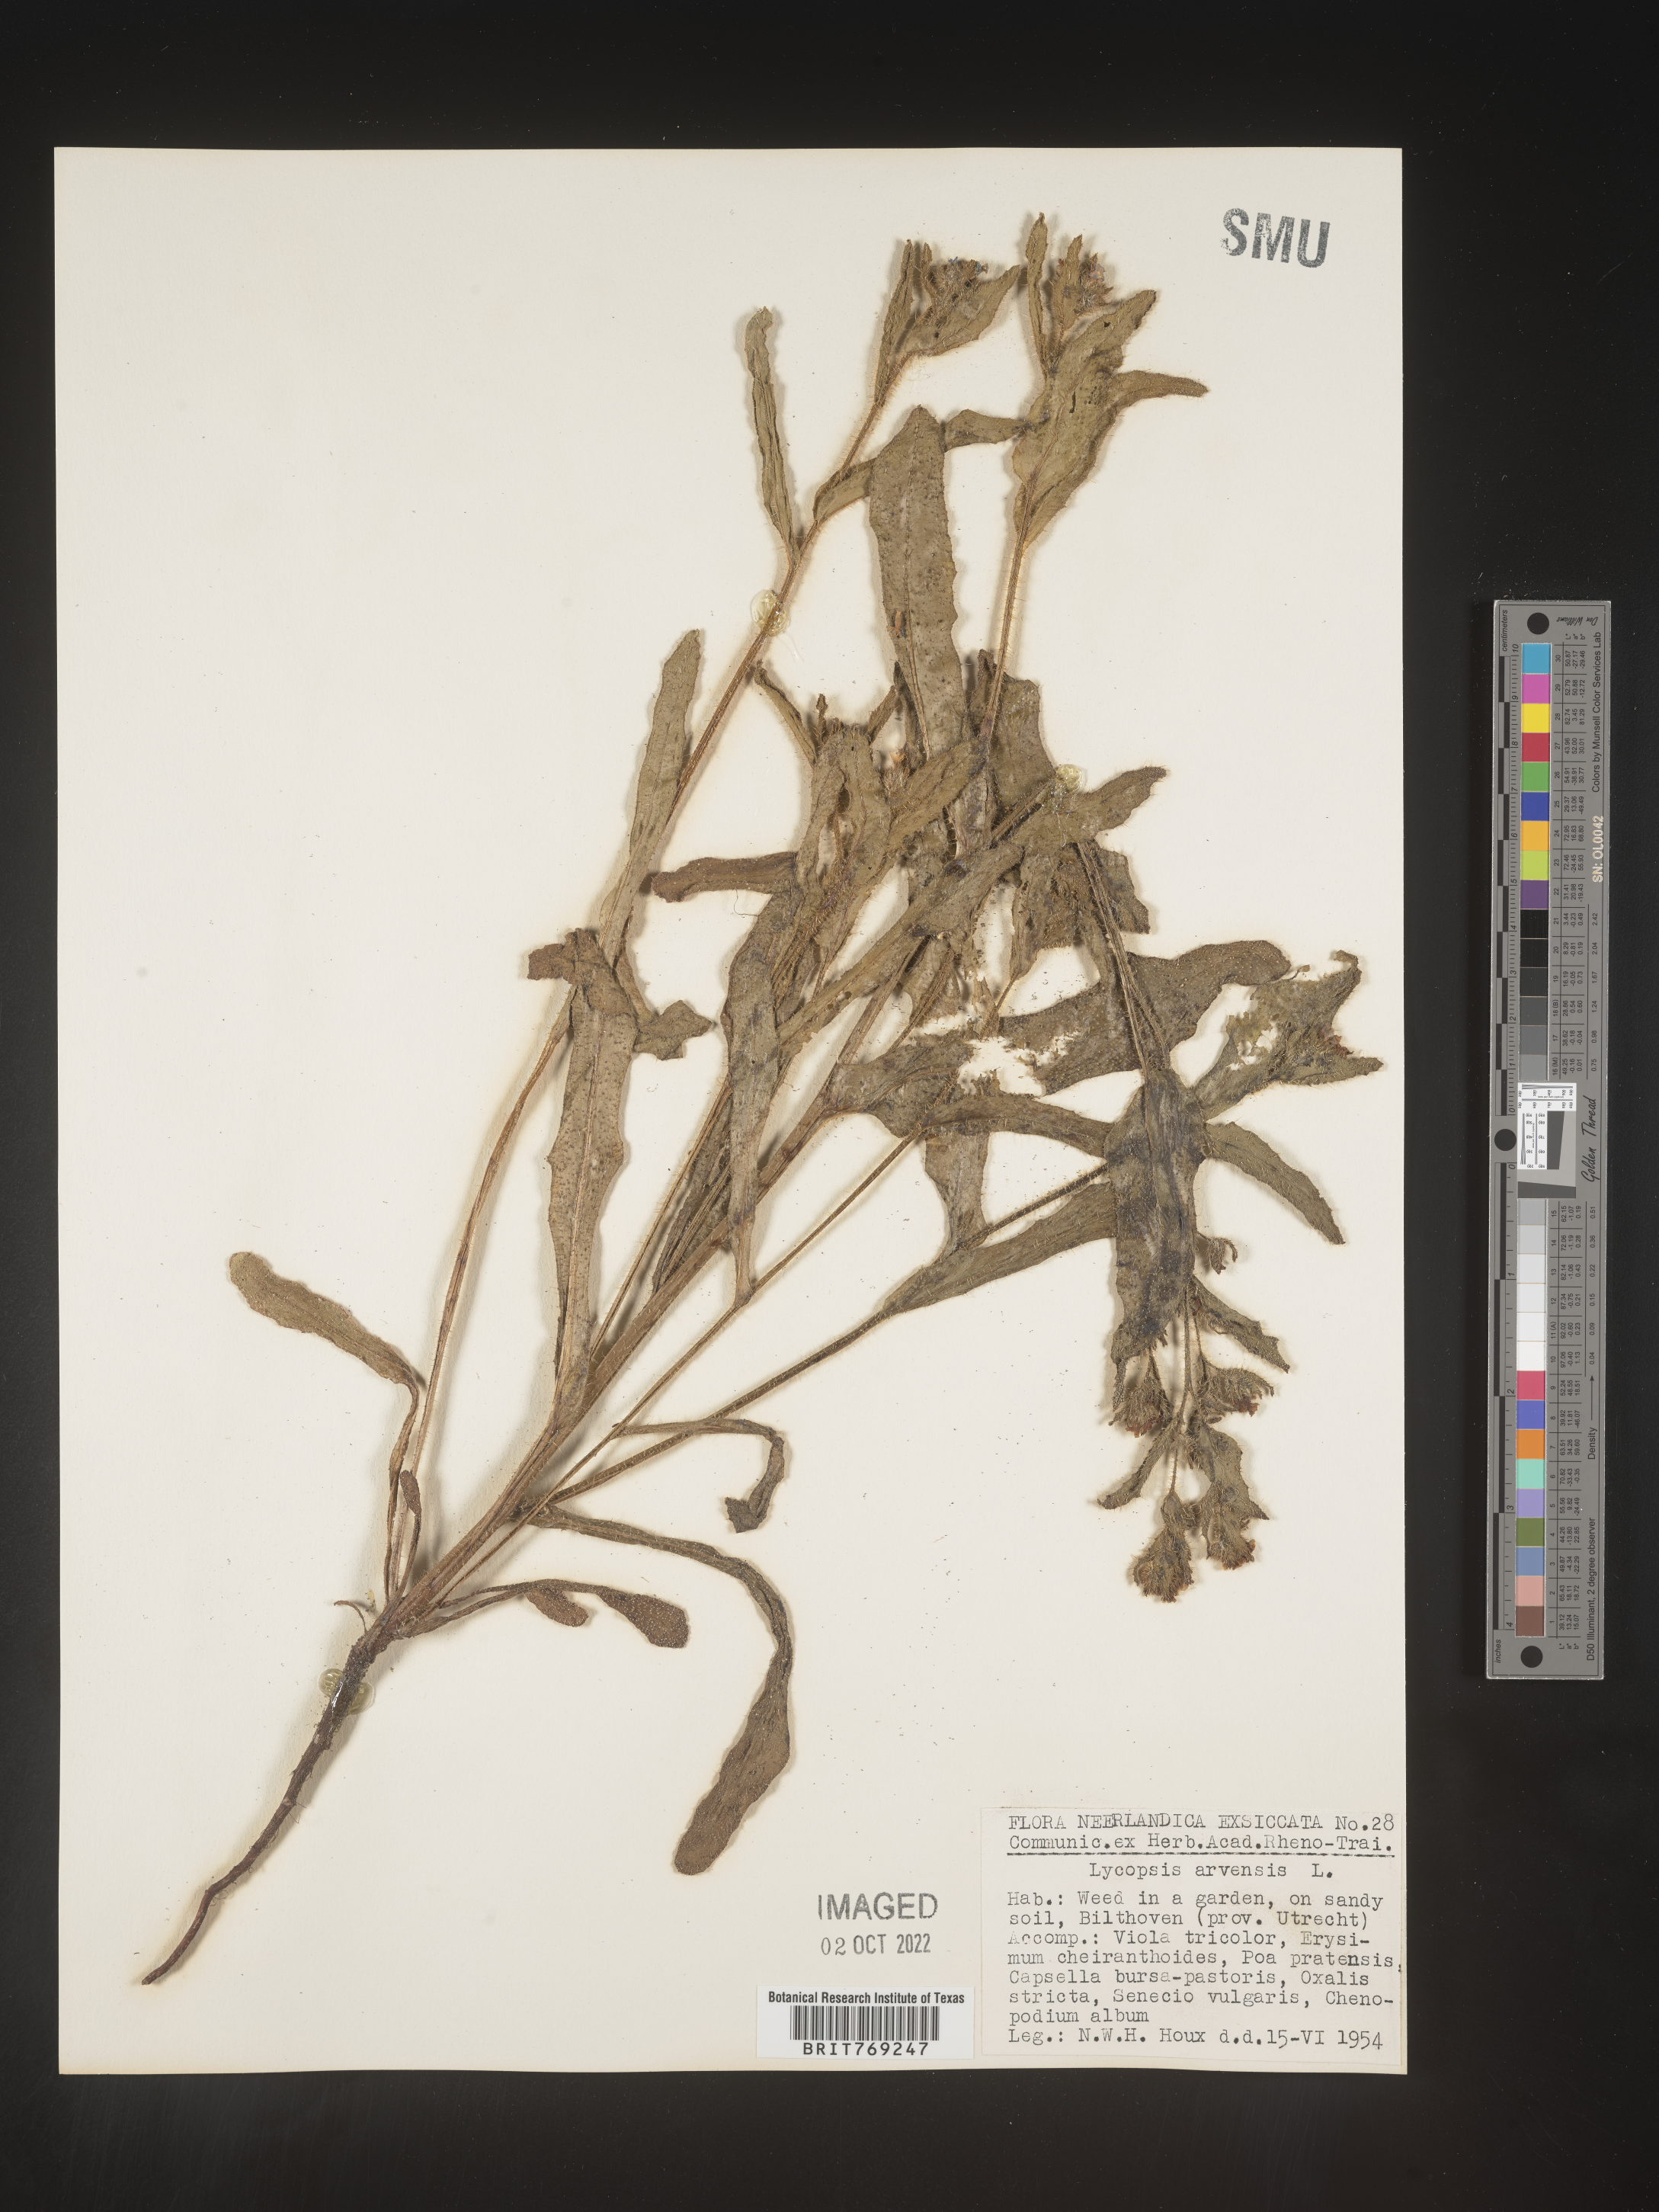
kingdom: Plantae
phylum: Tracheophyta
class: Magnoliopsida
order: Boraginales
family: Boraginaceae
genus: Lycopsis
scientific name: Lycopsis
